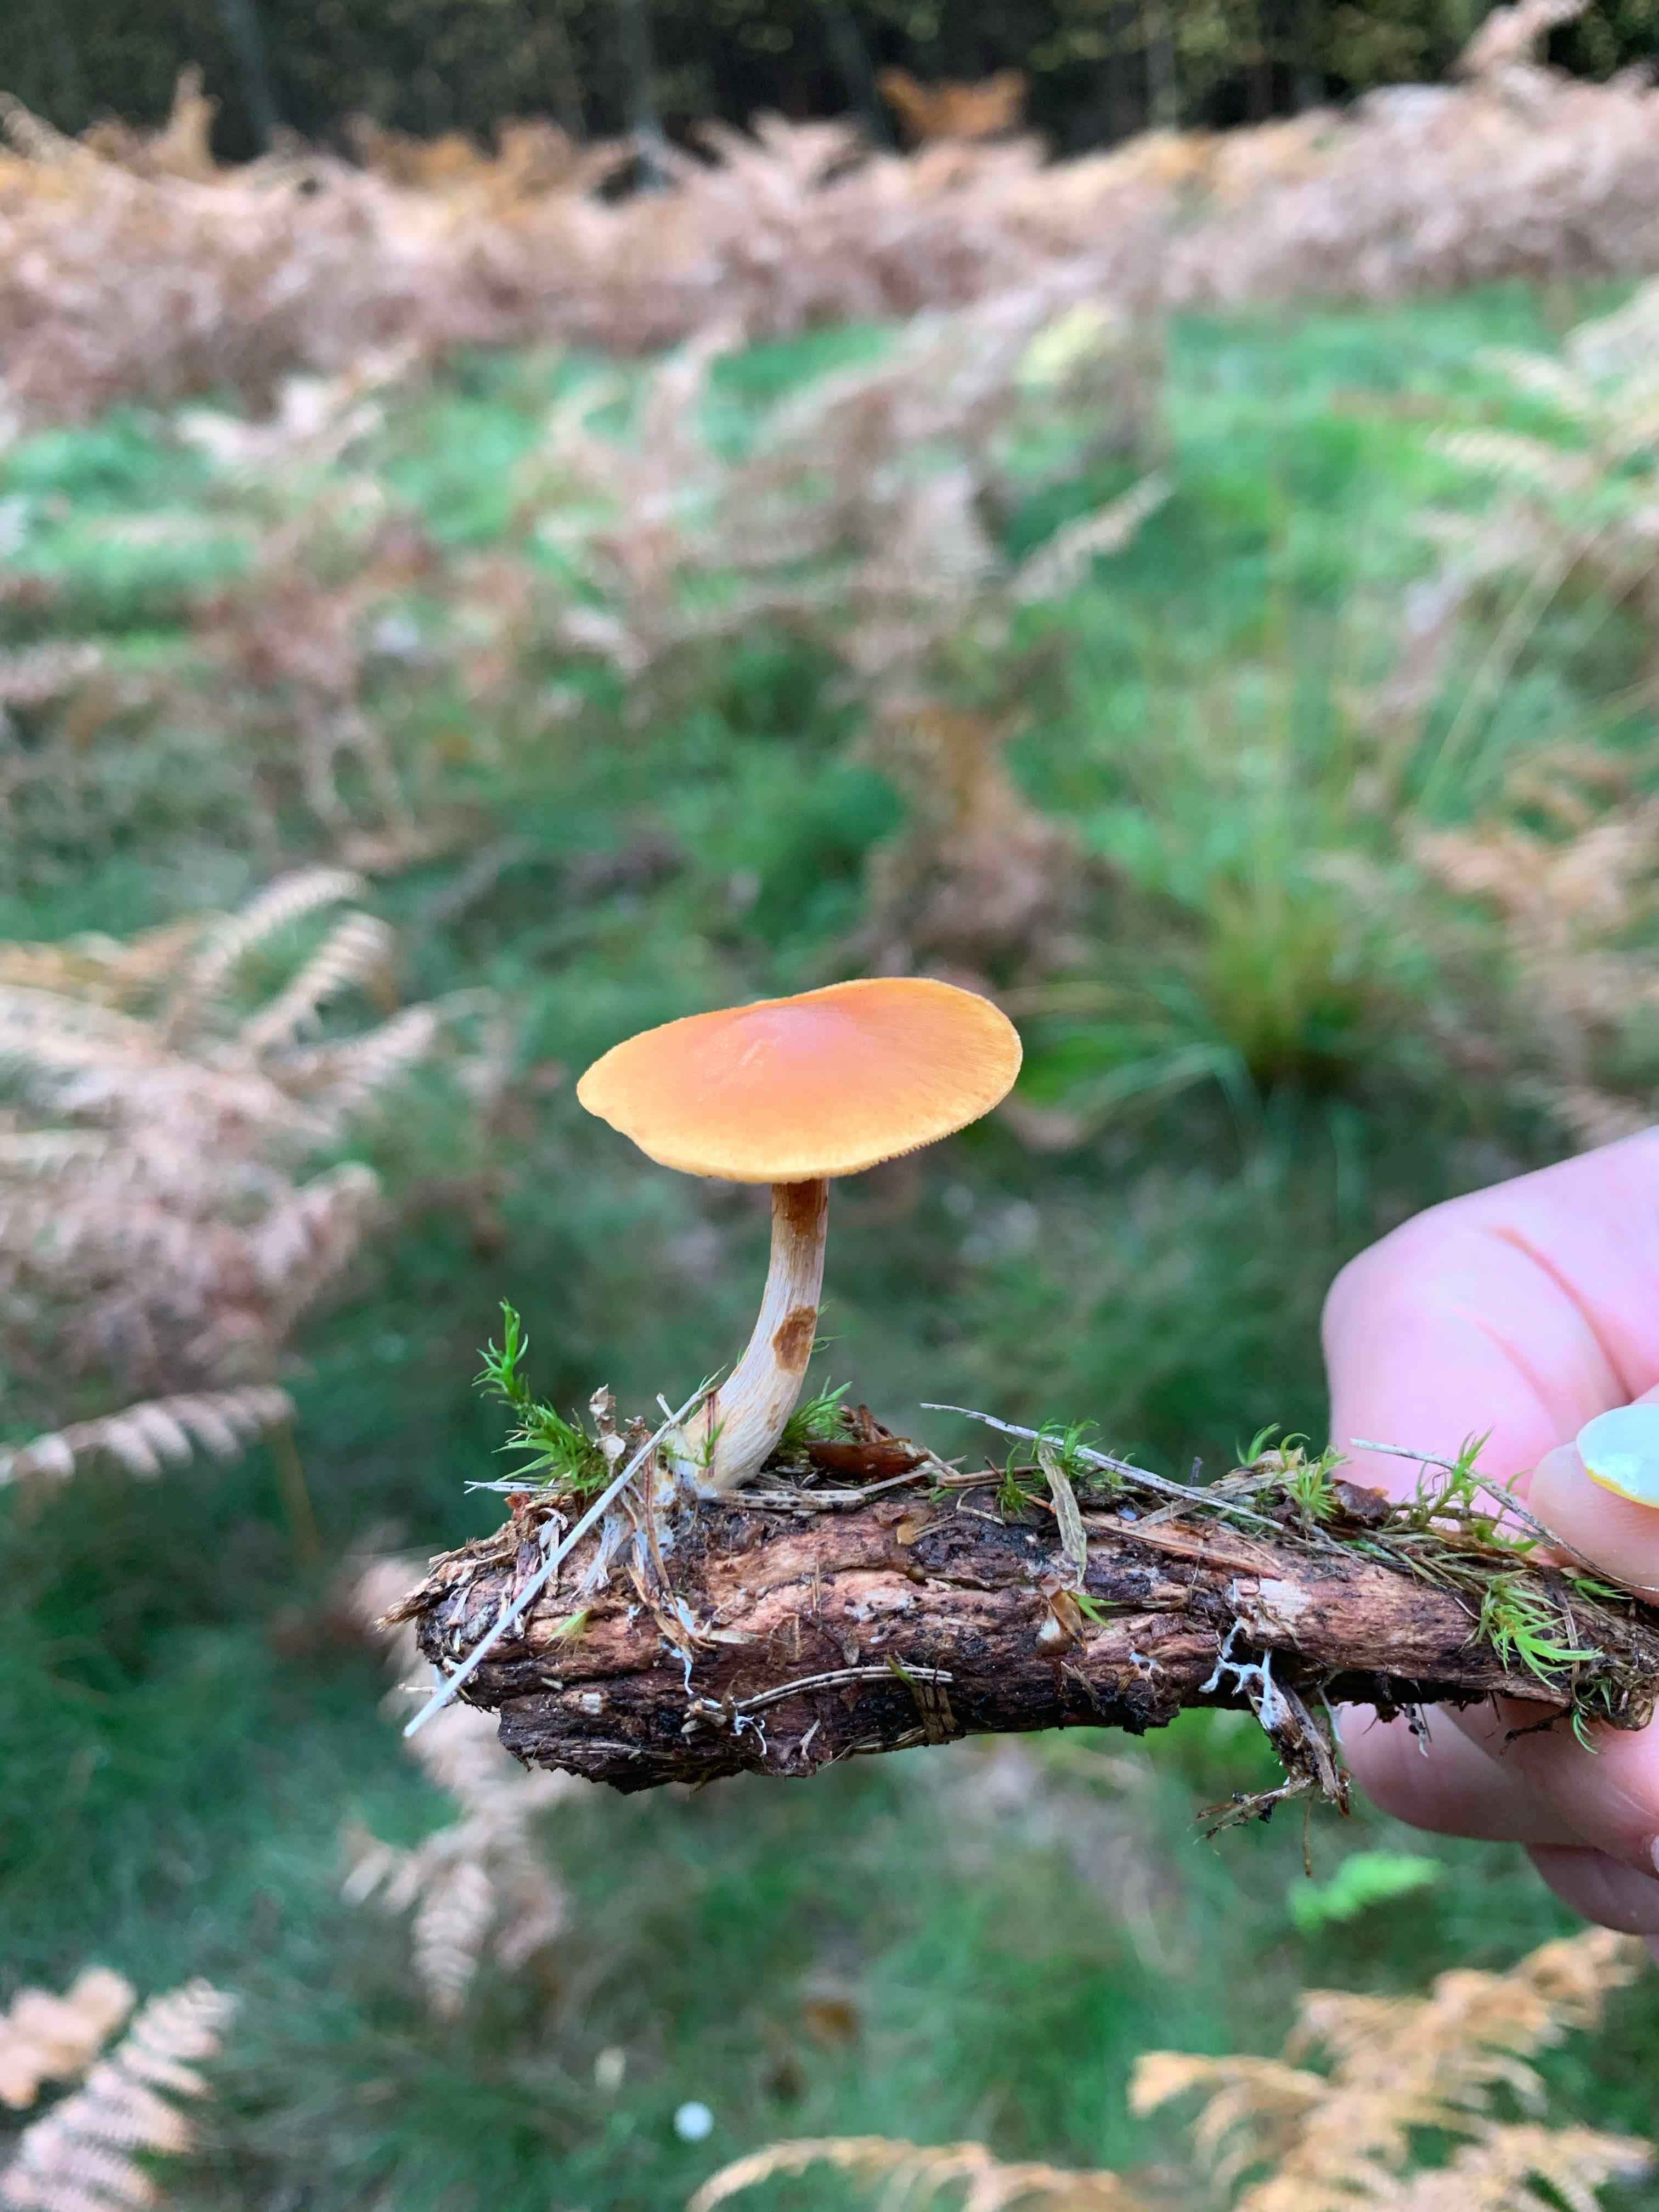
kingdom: Fungi
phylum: Basidiomycota
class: Agaricomycetes
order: Agaricales
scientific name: Agaricales
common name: champignonordenen
